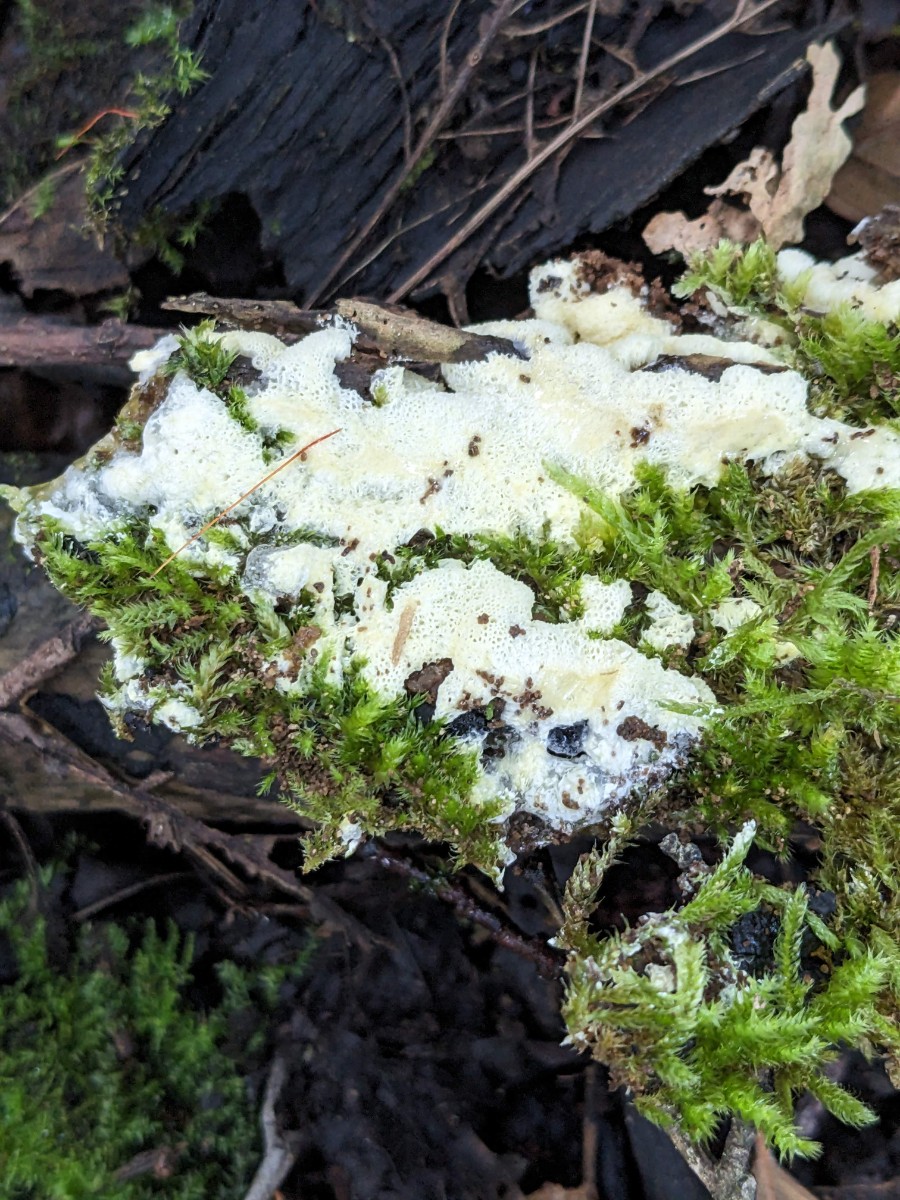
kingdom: Protozoa
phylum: Mycetozoa
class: Protosteliomycetes
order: Ceratiomyxales
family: Ceratiomyxaceae
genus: Ceratiomyxa
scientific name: Ceratiomyxa fruticulosa
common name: Honeycomb coral slime mold
